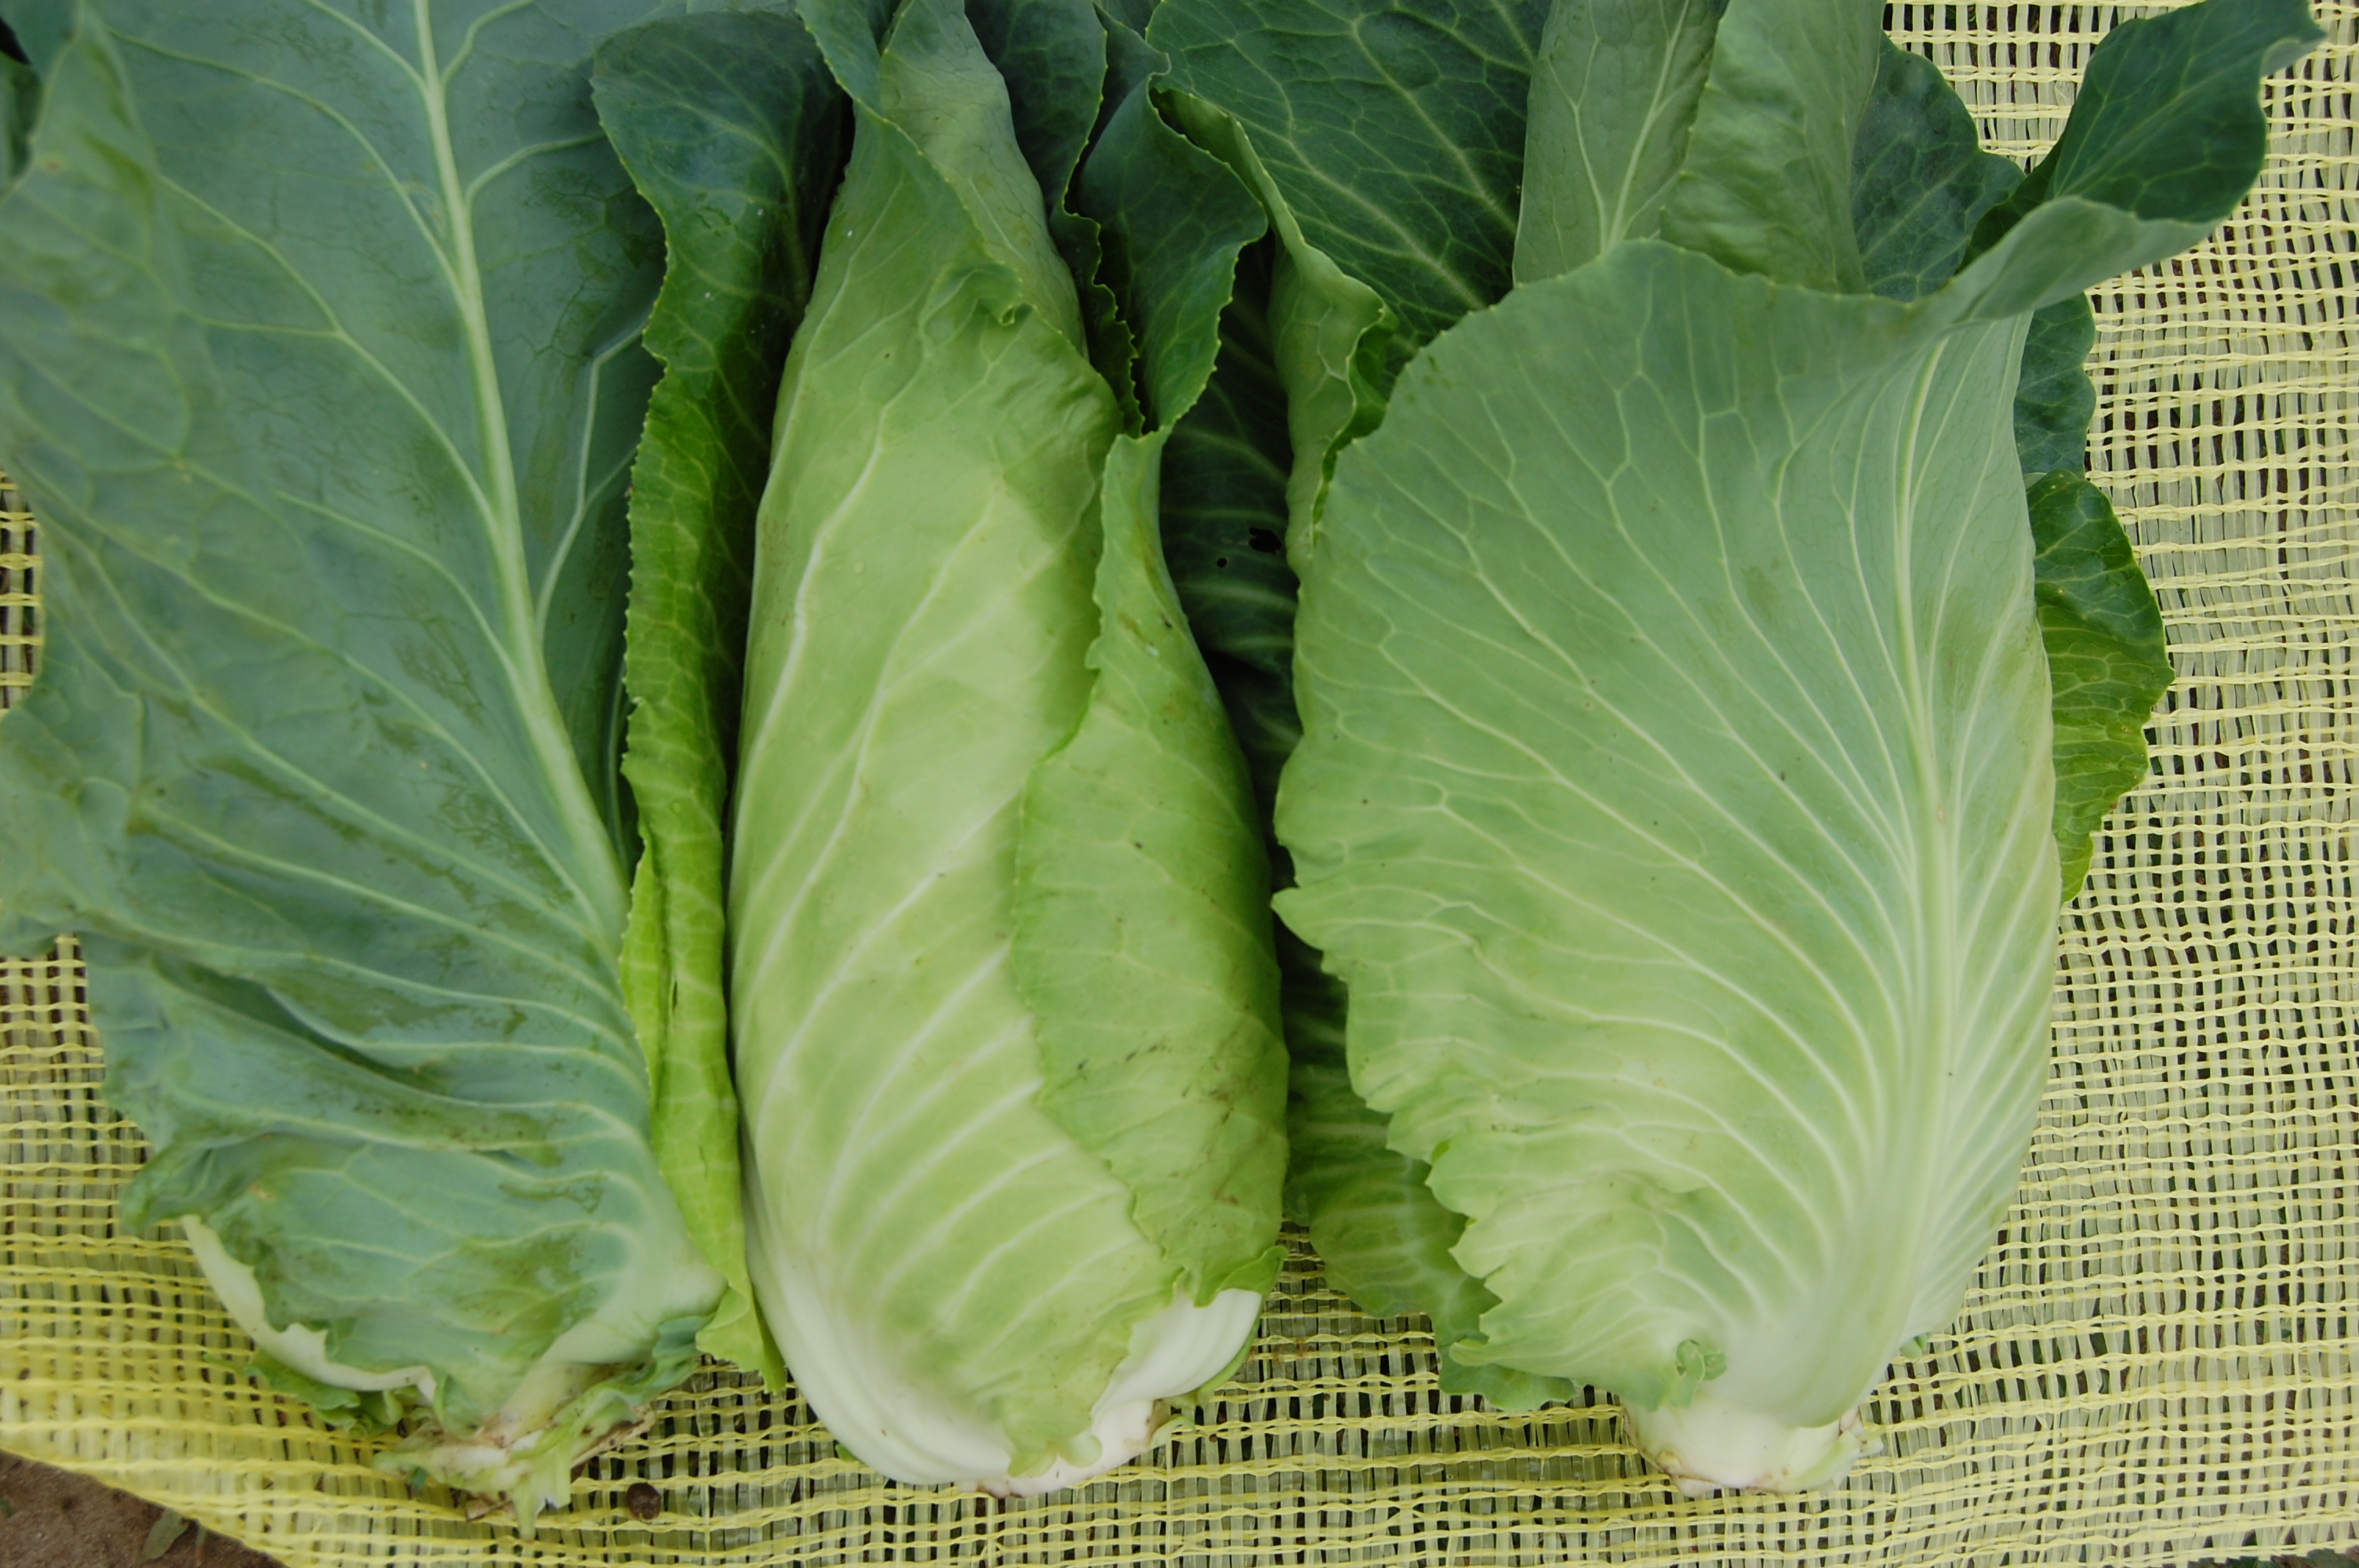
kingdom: Plantae
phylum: Tracheophyta
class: Magnoliopsida
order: Brassicales
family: Brassicaceae
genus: Brassica
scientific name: Brassica oleracea
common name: Cabbage
